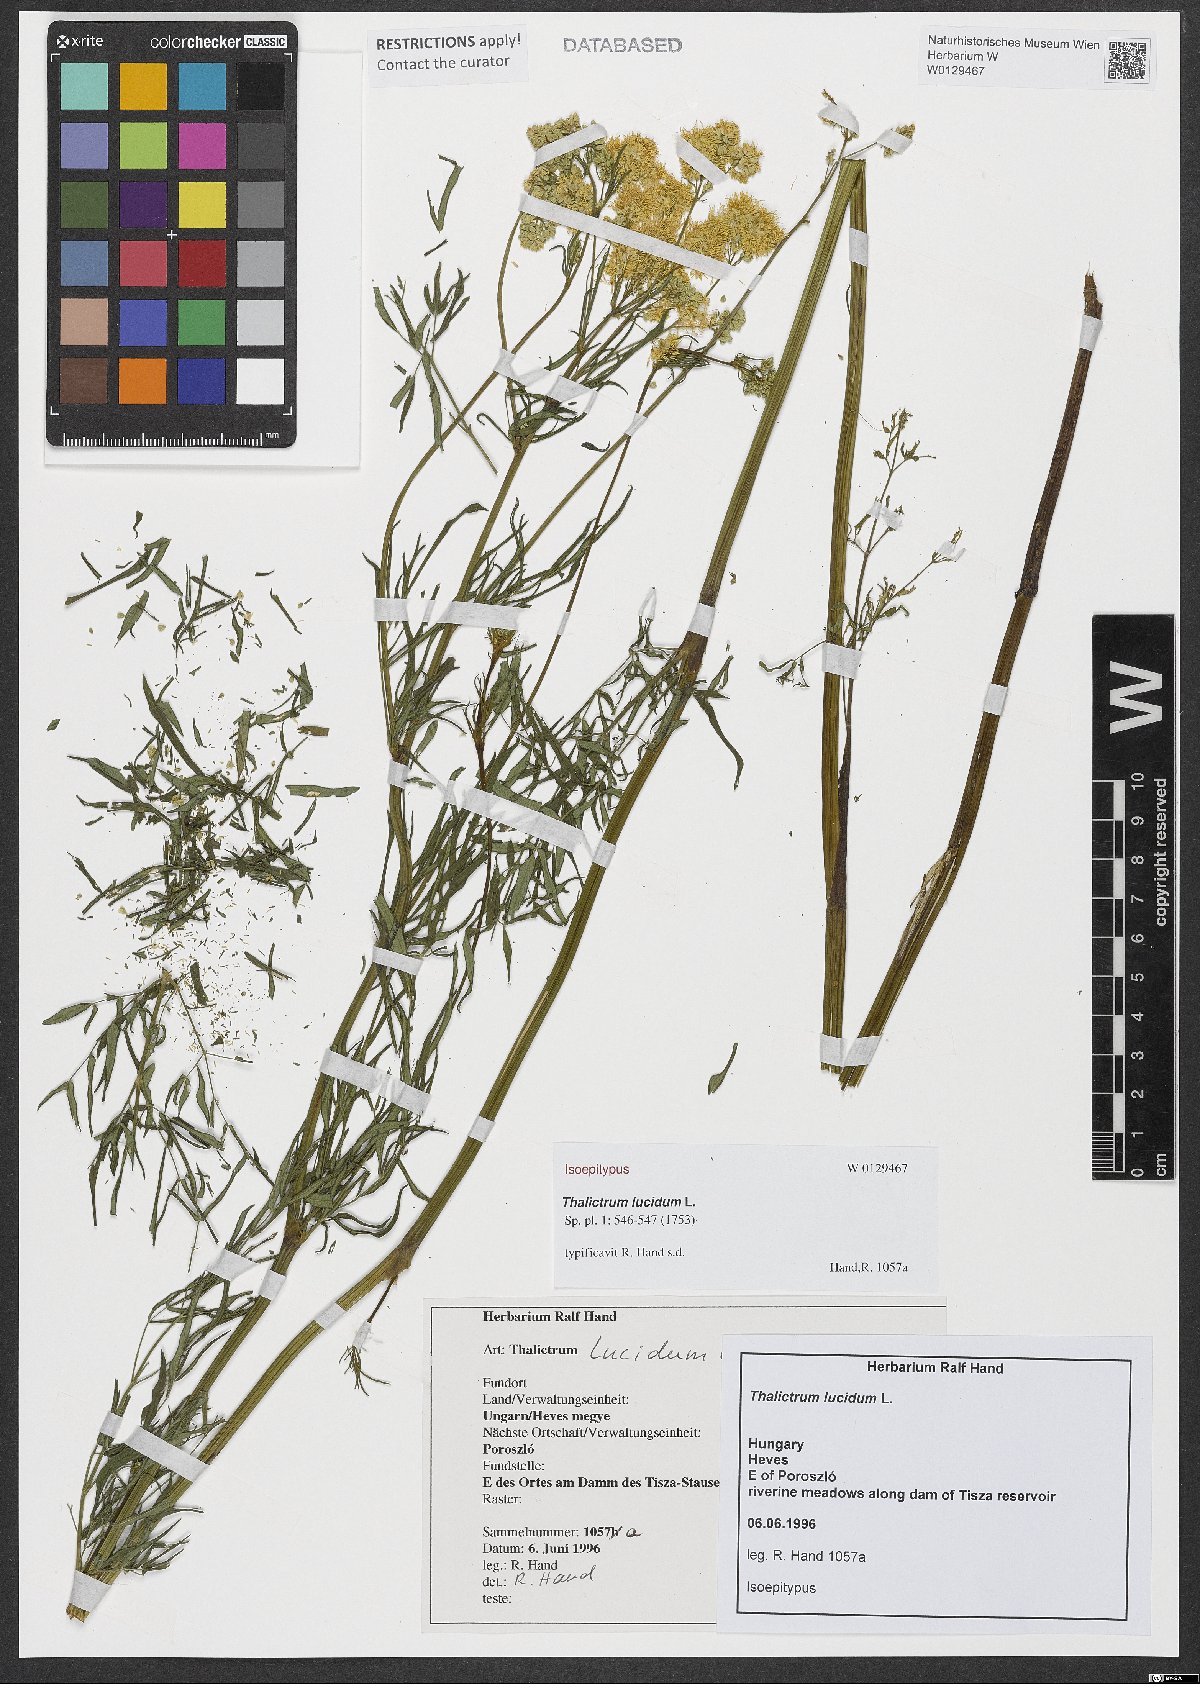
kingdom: Plantae
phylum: Tracheophyta
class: Magnoliopsida
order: Ranunculales
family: Ranunculaceae
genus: Thalictrum
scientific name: Thalictrum lucidum
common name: Shining meadow-rue
